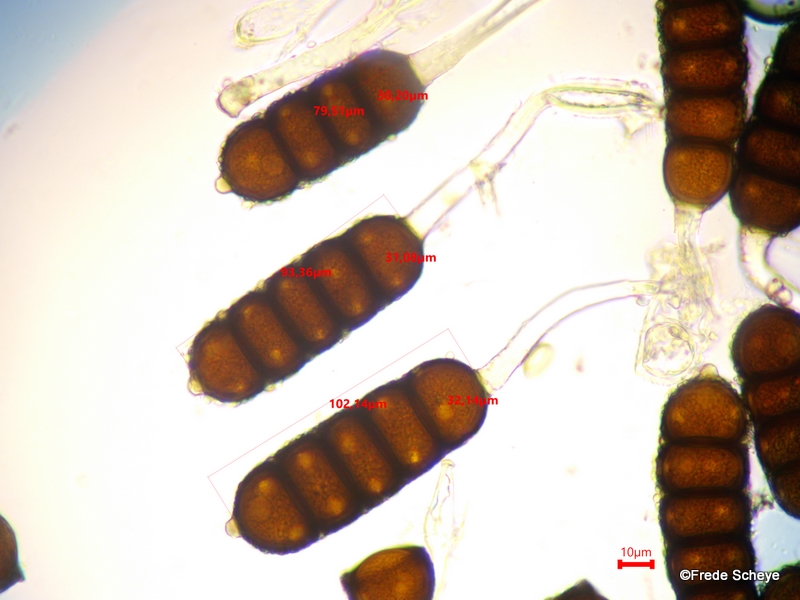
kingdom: Fungi
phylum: Basidiomycota
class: Pucciniomycetes
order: Pucciniales
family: Phragmidiaceae
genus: Phragmidium
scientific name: Phragmidium violaceum
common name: violet flercellerust
